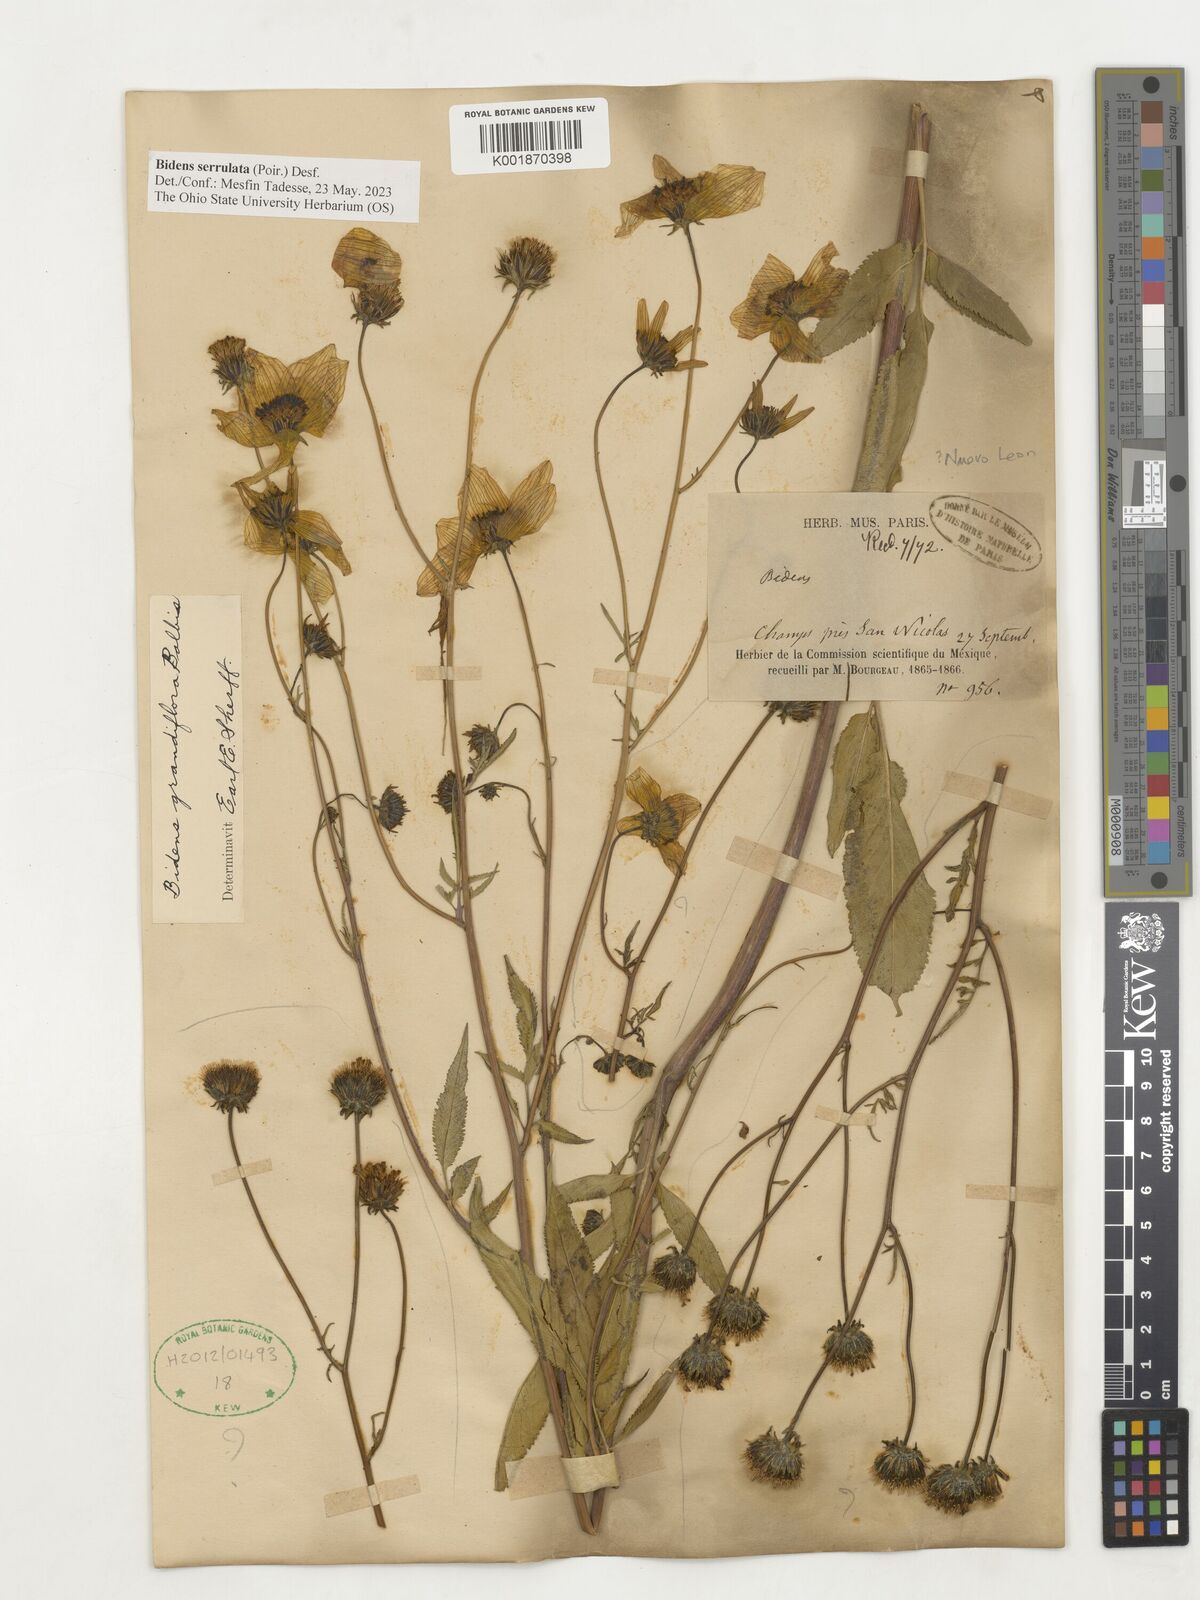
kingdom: Plantae
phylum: Tracheophyta
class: Magnoliopsida
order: Asterales
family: Asteraceae
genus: Bidens
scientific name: Bidens serrulata
